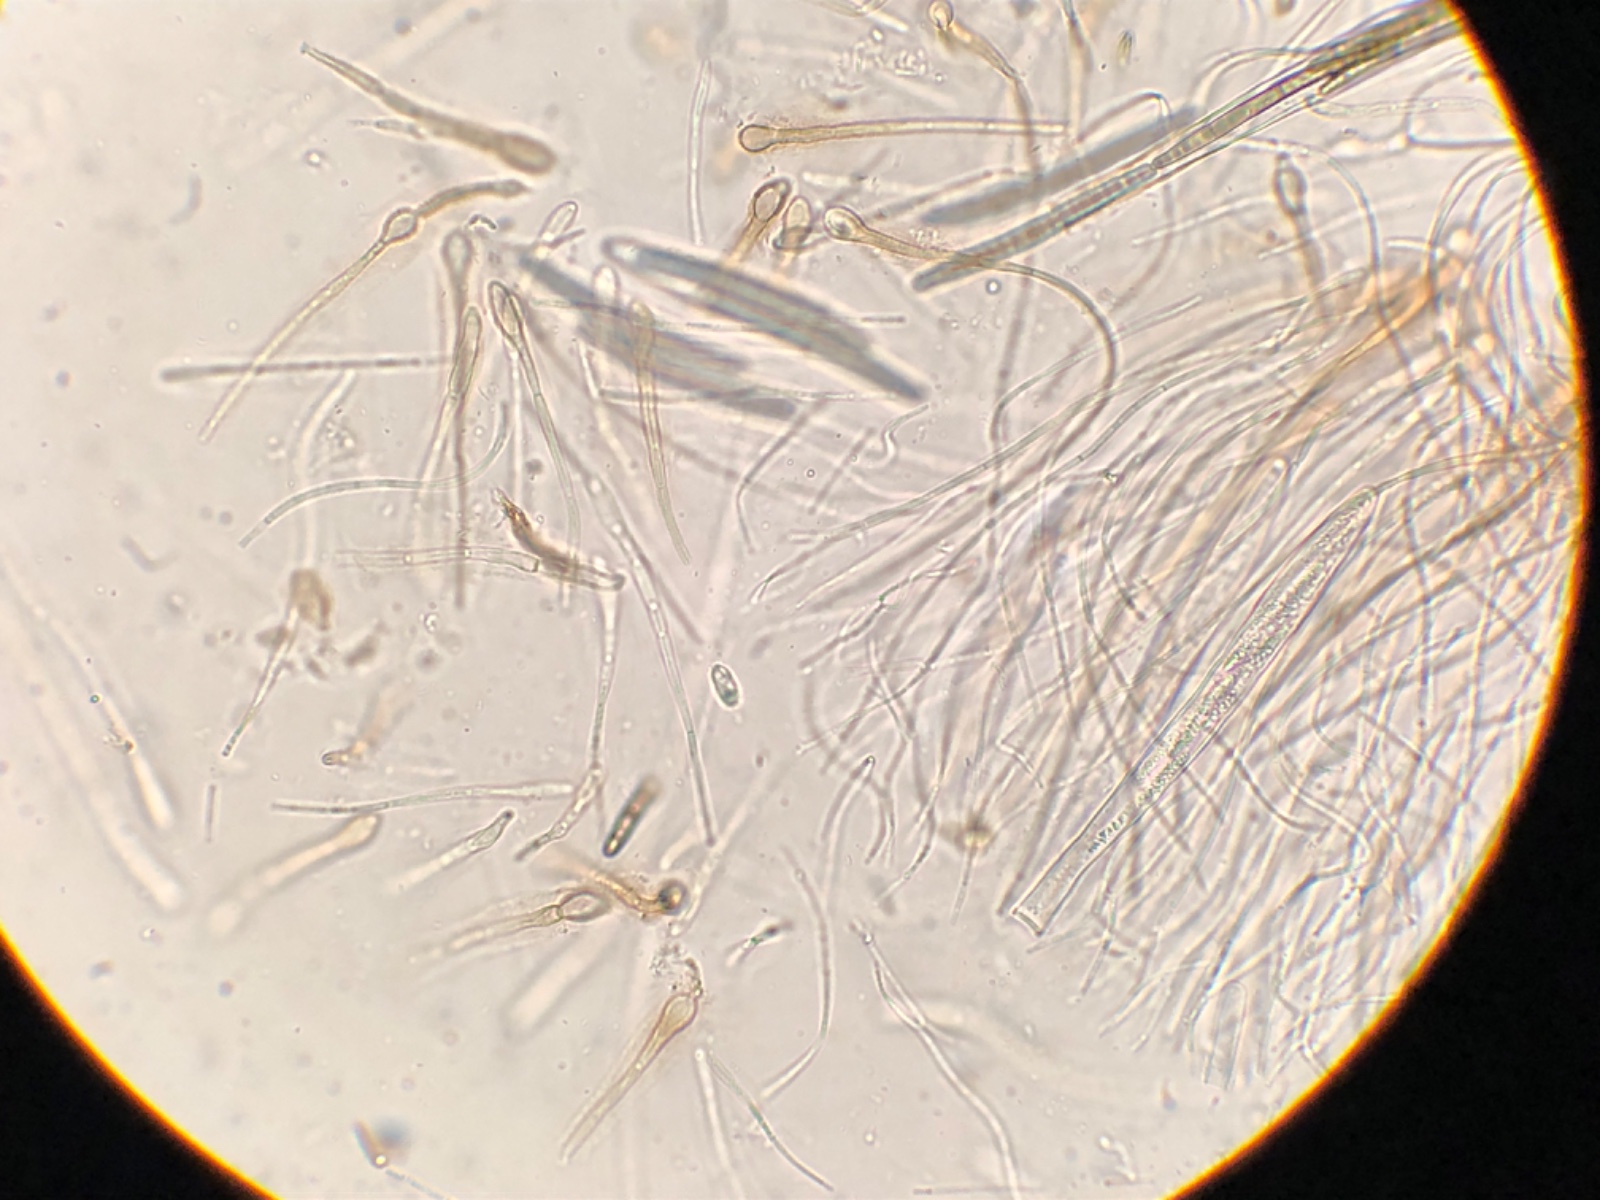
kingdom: Fungi
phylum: Ascomycota
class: Geoglossomycetes
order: Geoglossales
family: Geoglossaceae
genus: Glutinoglossum
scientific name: Glutinoglossum glutinosum
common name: slimet jordtunge
